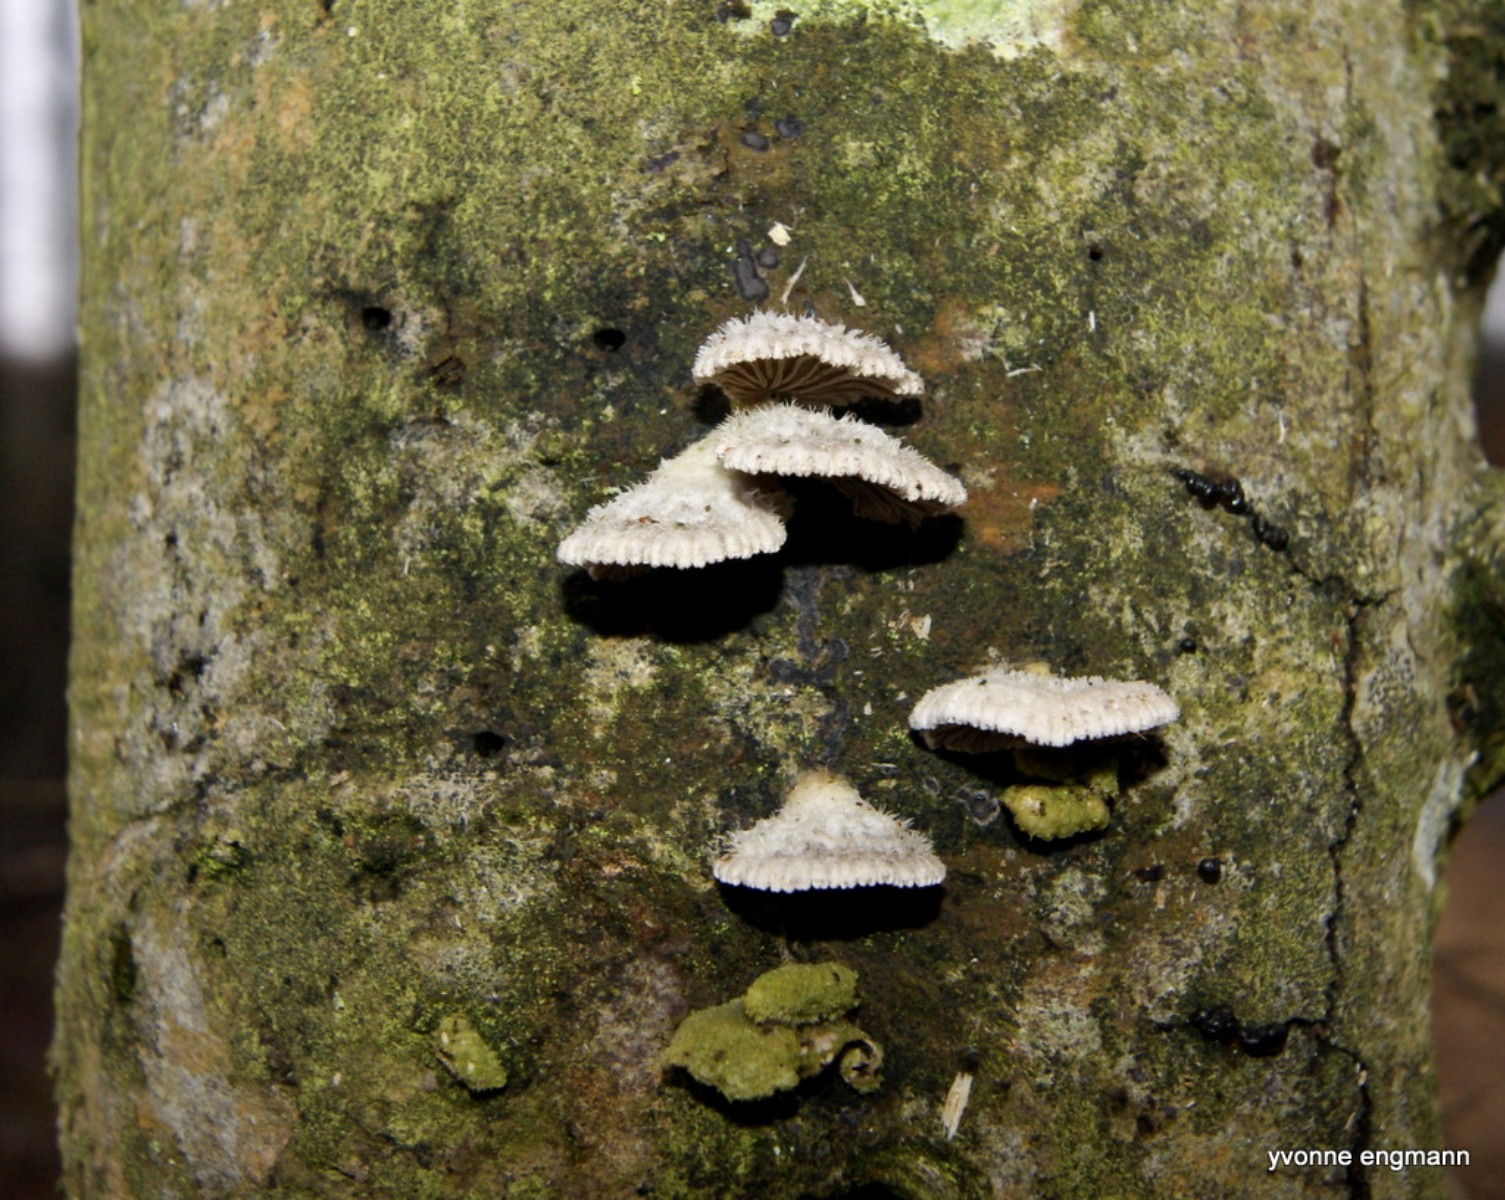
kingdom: Fungi
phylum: Basidiomycota
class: Agaricomycetes
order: Agaricales
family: Schizophyllaceae
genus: Schizophyllum
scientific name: Schizophyllum commune
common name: kløvblad
